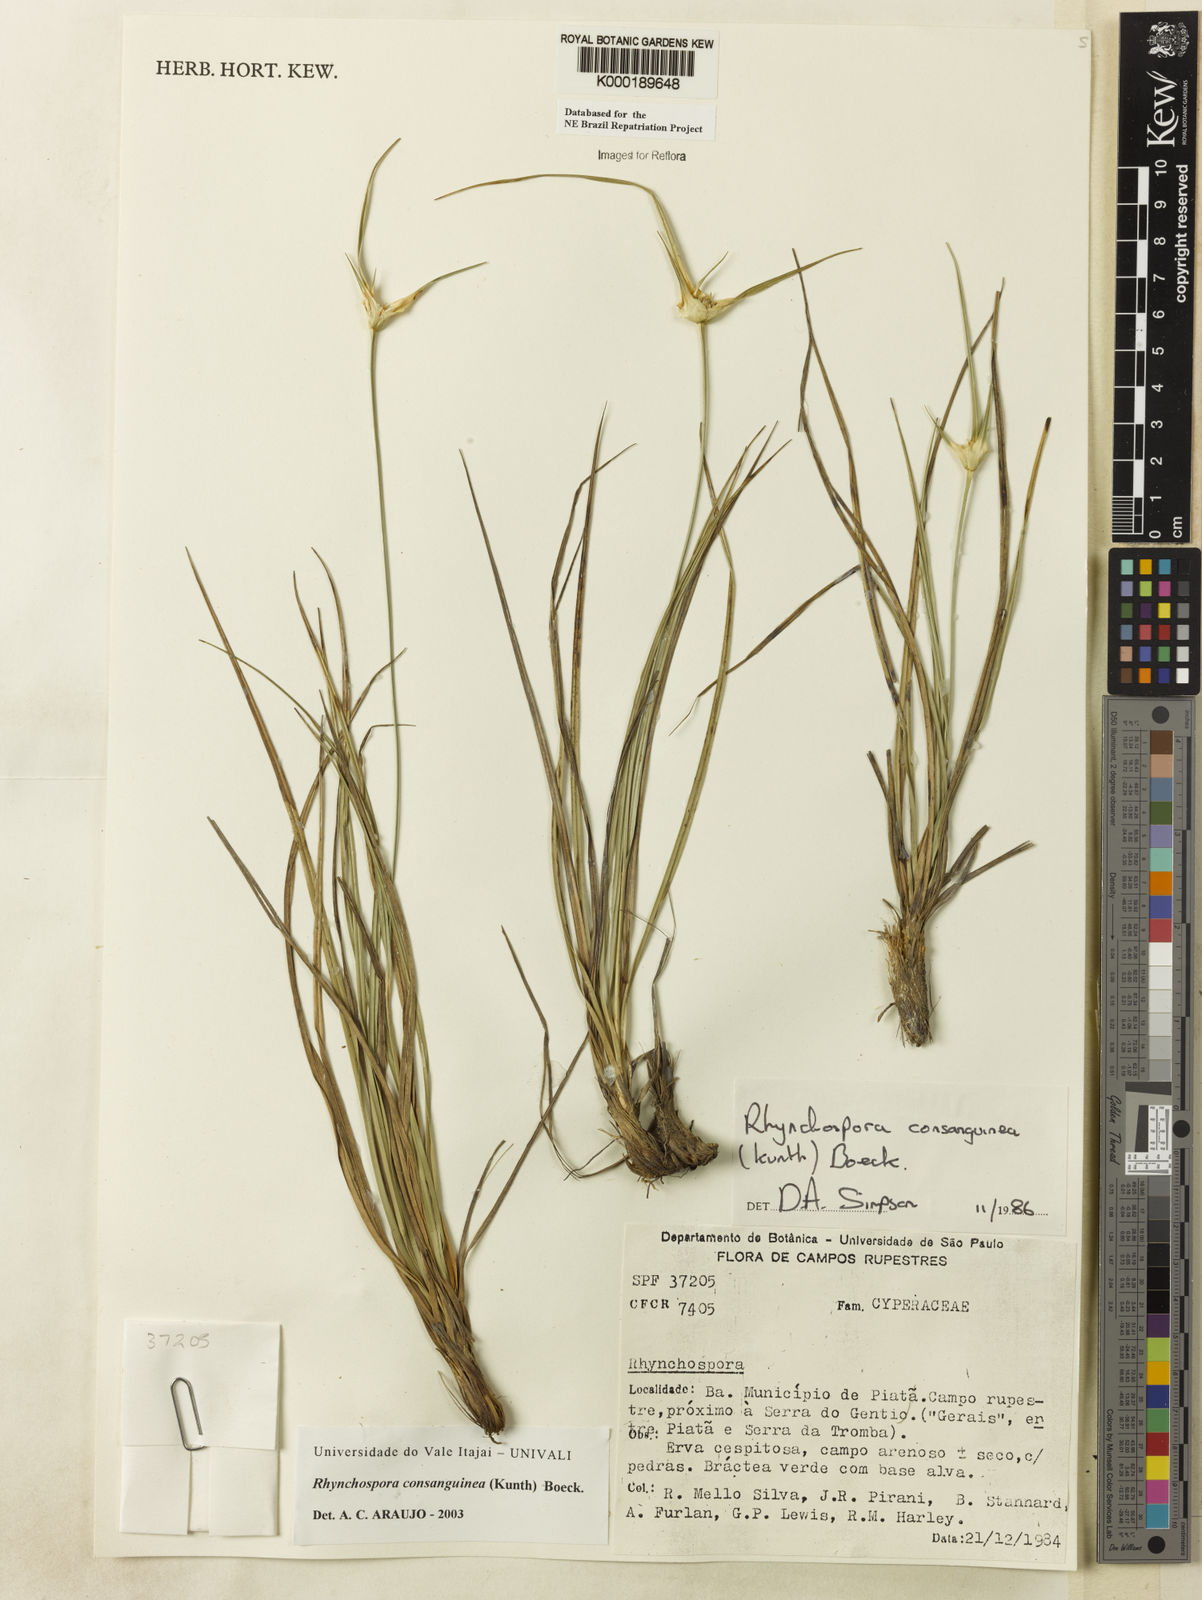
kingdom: Plantae
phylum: Tracheophyta
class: Liliopsida
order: Poales
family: Cyperaceae
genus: Rhynchospora
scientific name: Rhynchospora consanguinea
